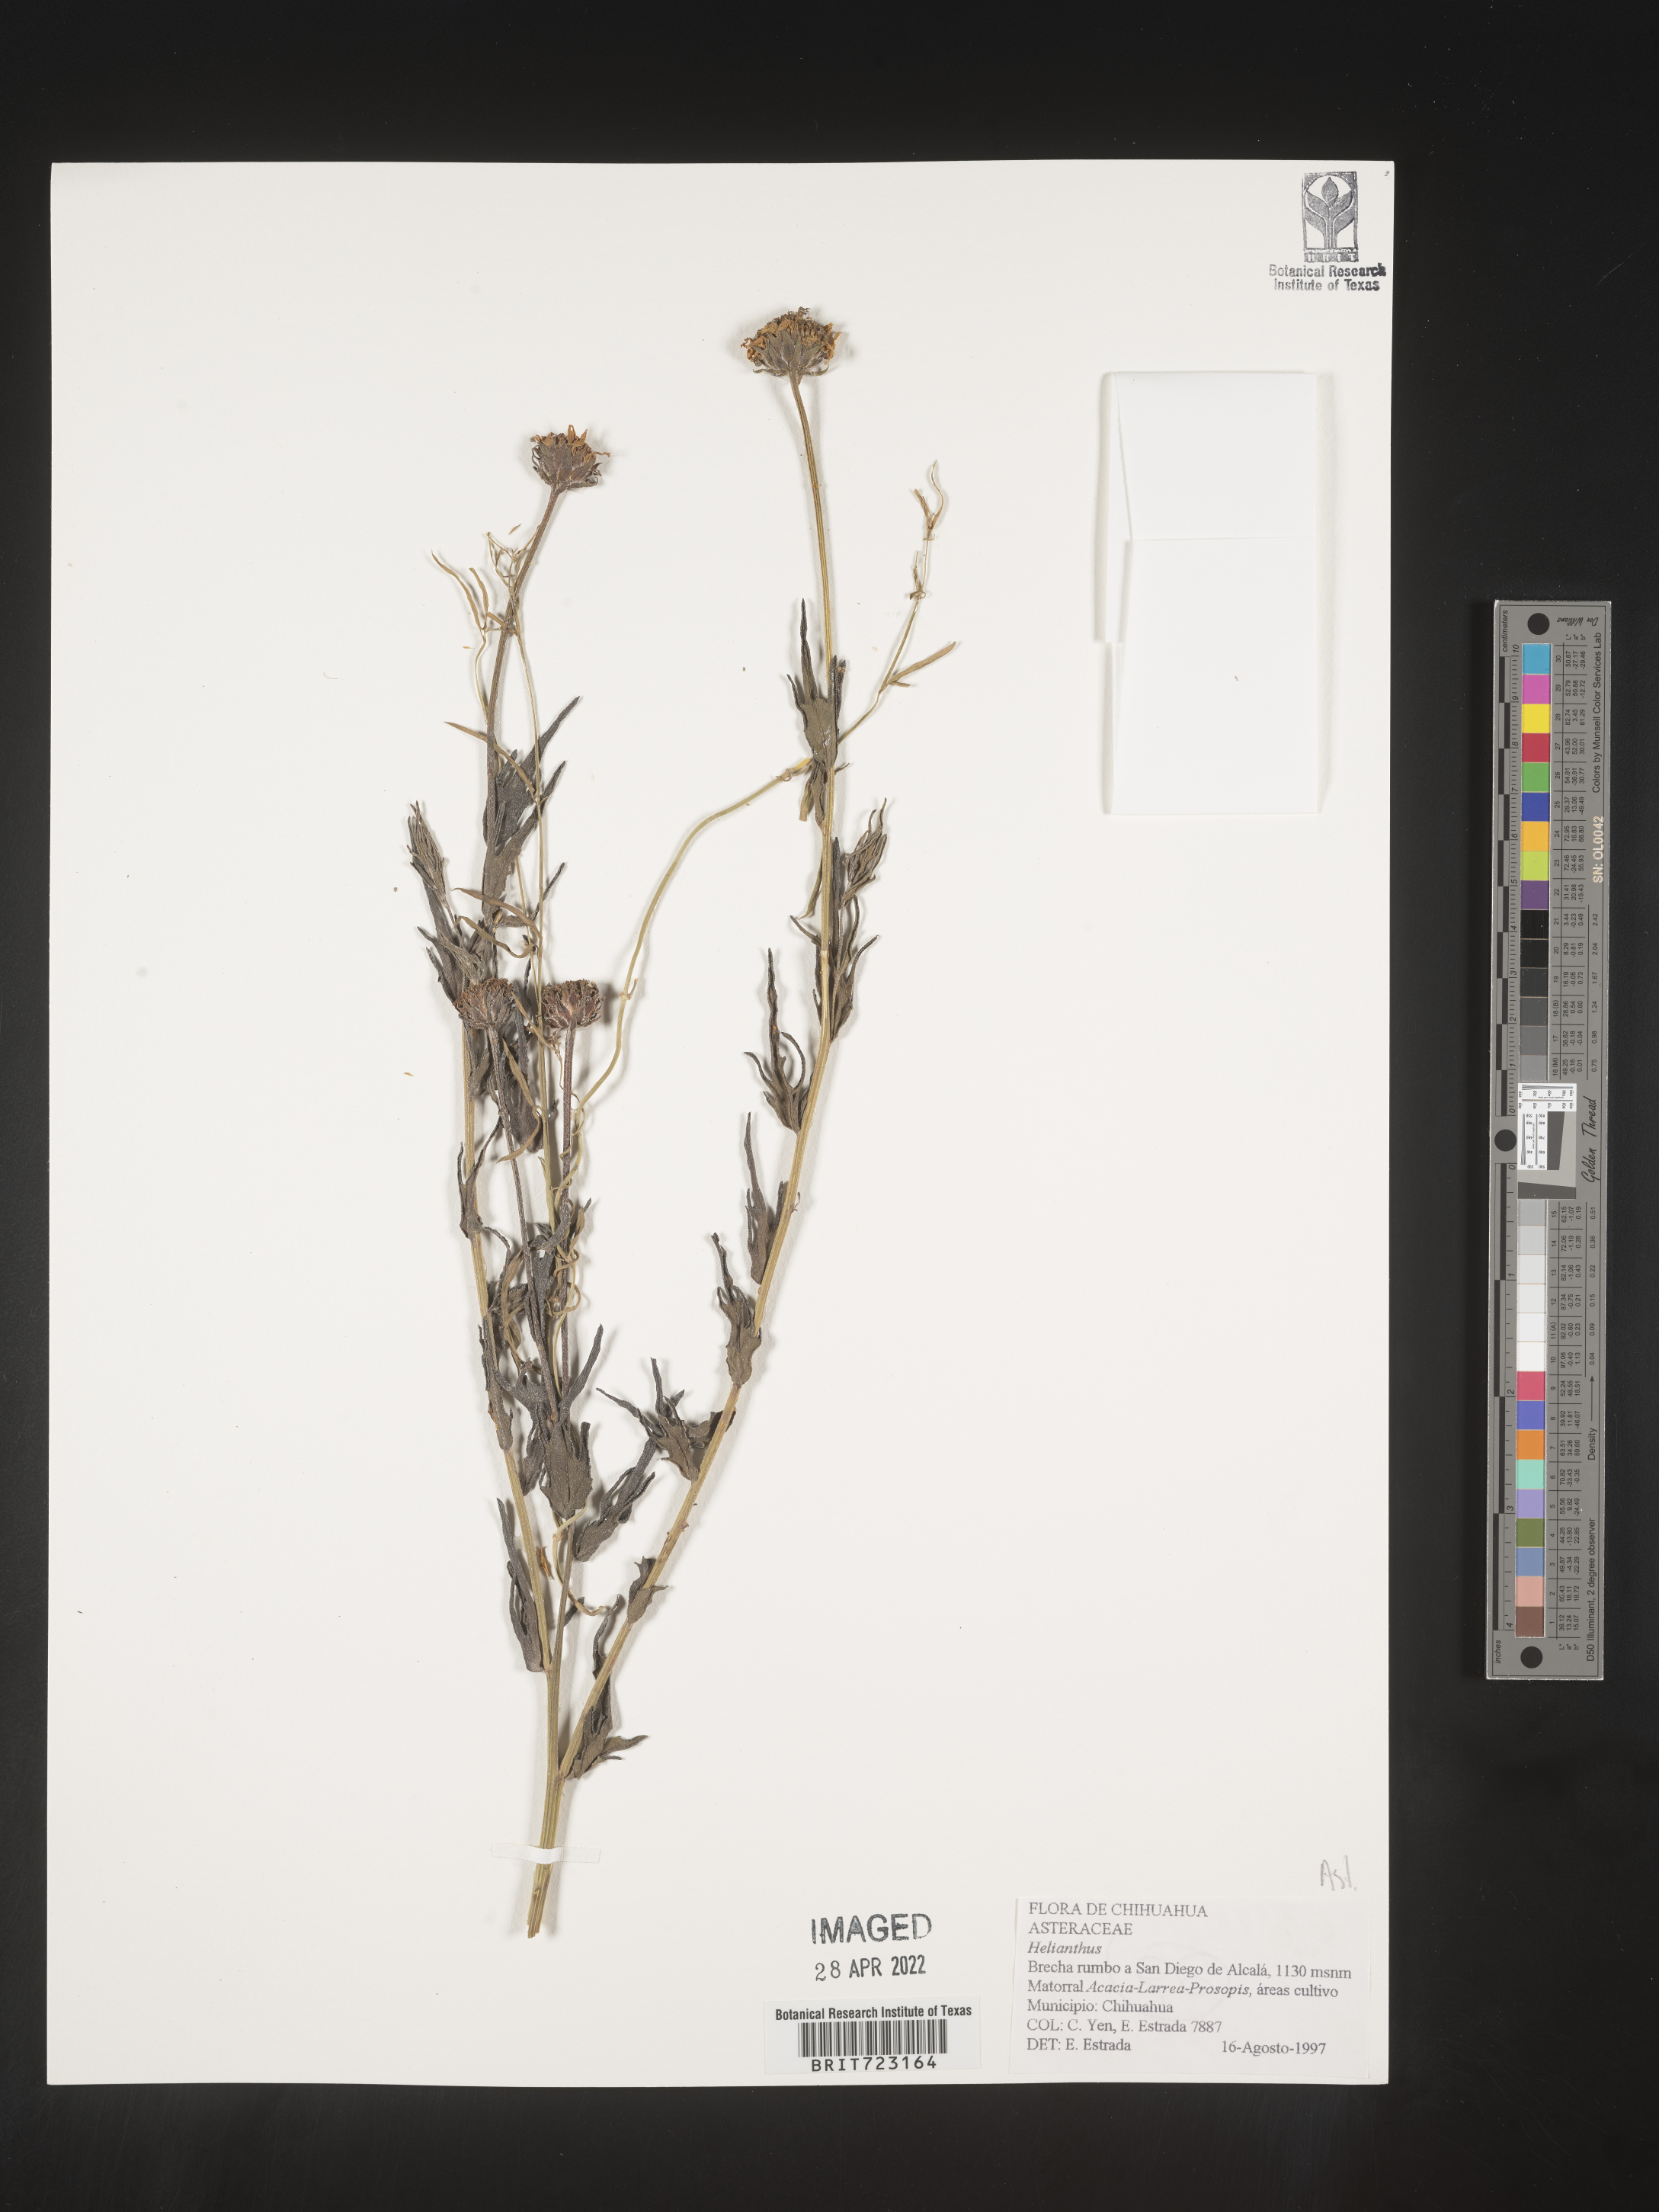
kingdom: Plantae
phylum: Tracheophyta
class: Magnoliopsida
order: Asterales
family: Asteraceae
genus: Helianthus
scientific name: Helianthus
